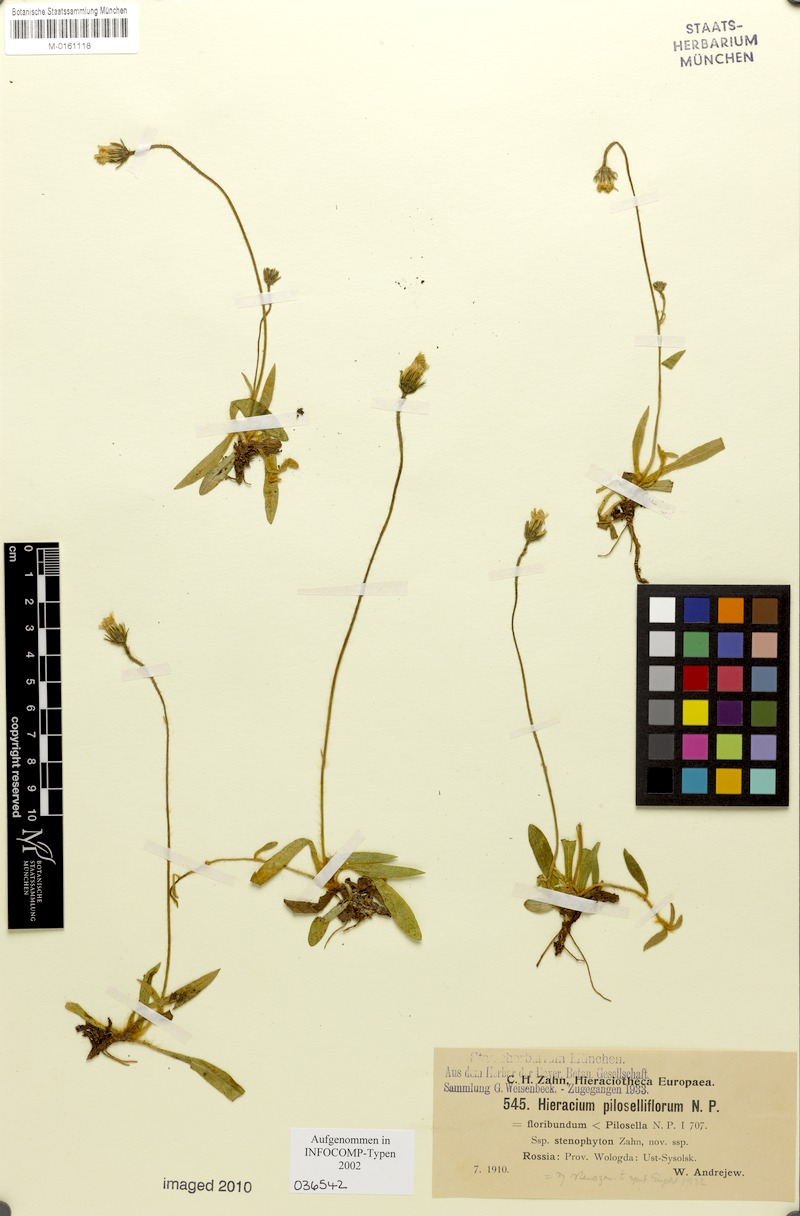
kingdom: Plantae
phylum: Tracheophyta
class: Magnoliopsida
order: Asterales
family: Asteraceae
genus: Pilosella
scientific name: Pilosella piloselliflora
